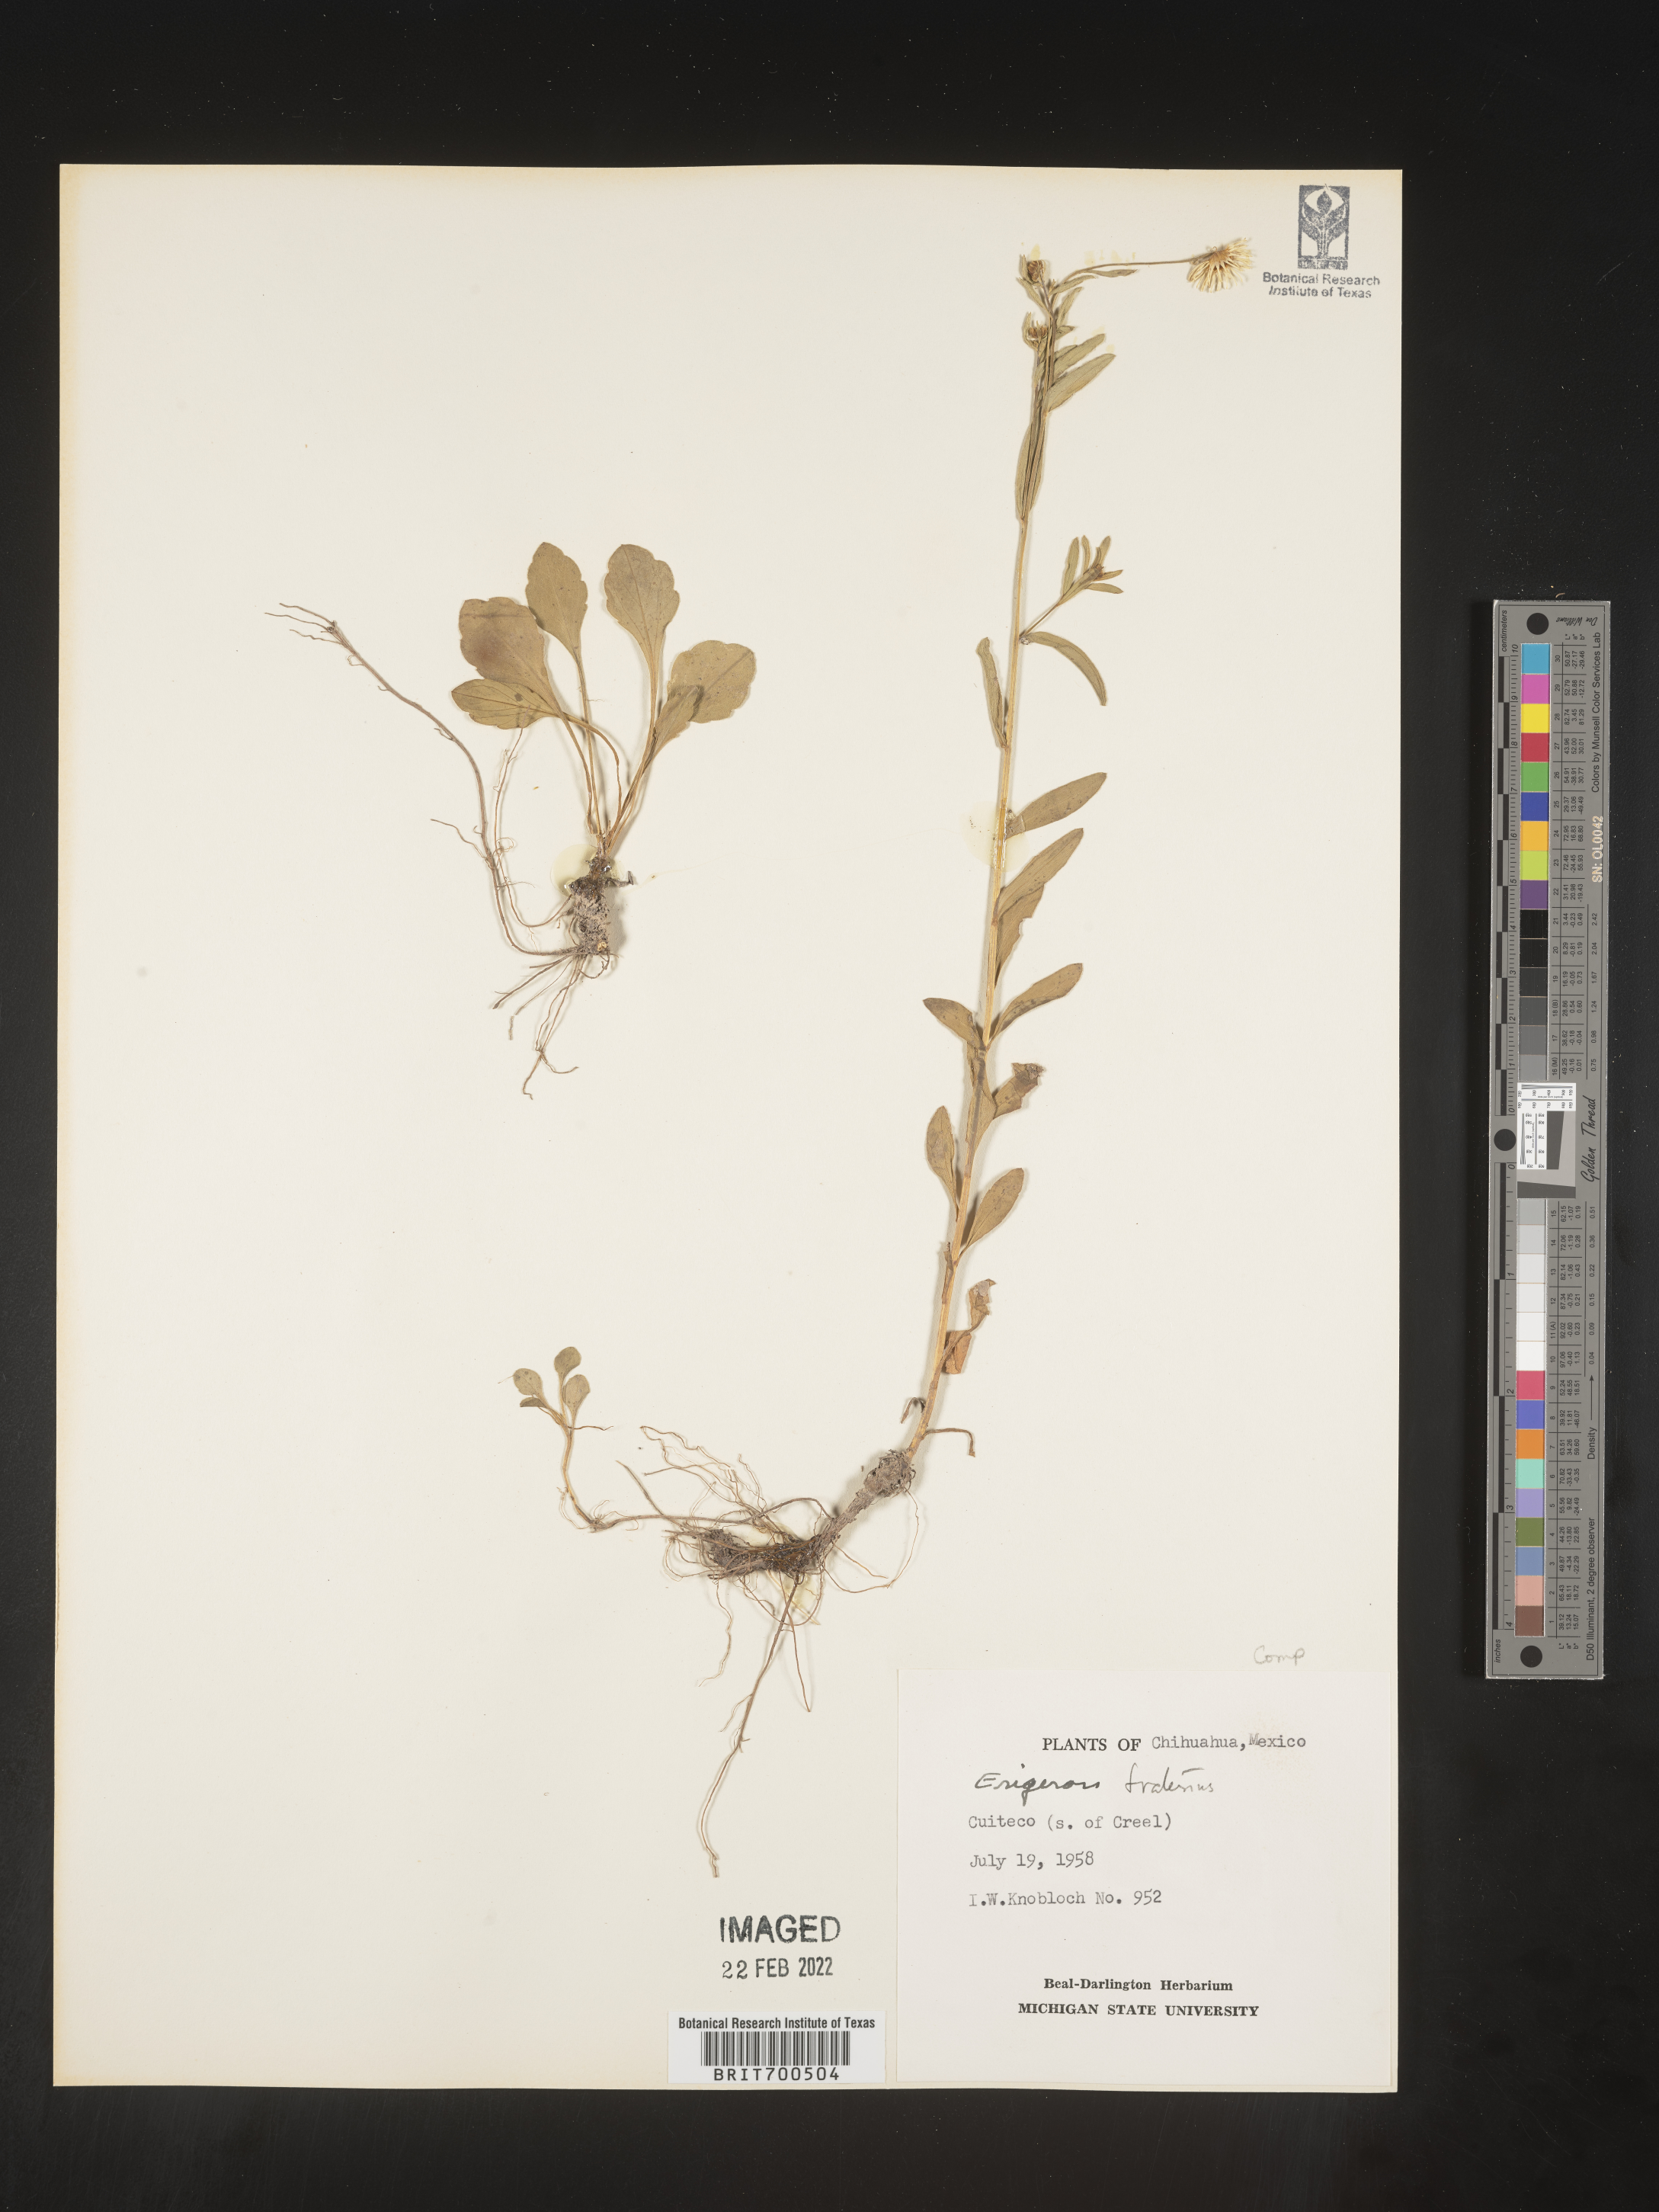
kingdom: Plantae
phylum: Tracheophyta
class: Magnoliopsida
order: Asterales
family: Asteraceae
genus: Erigeron
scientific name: Erigeron
